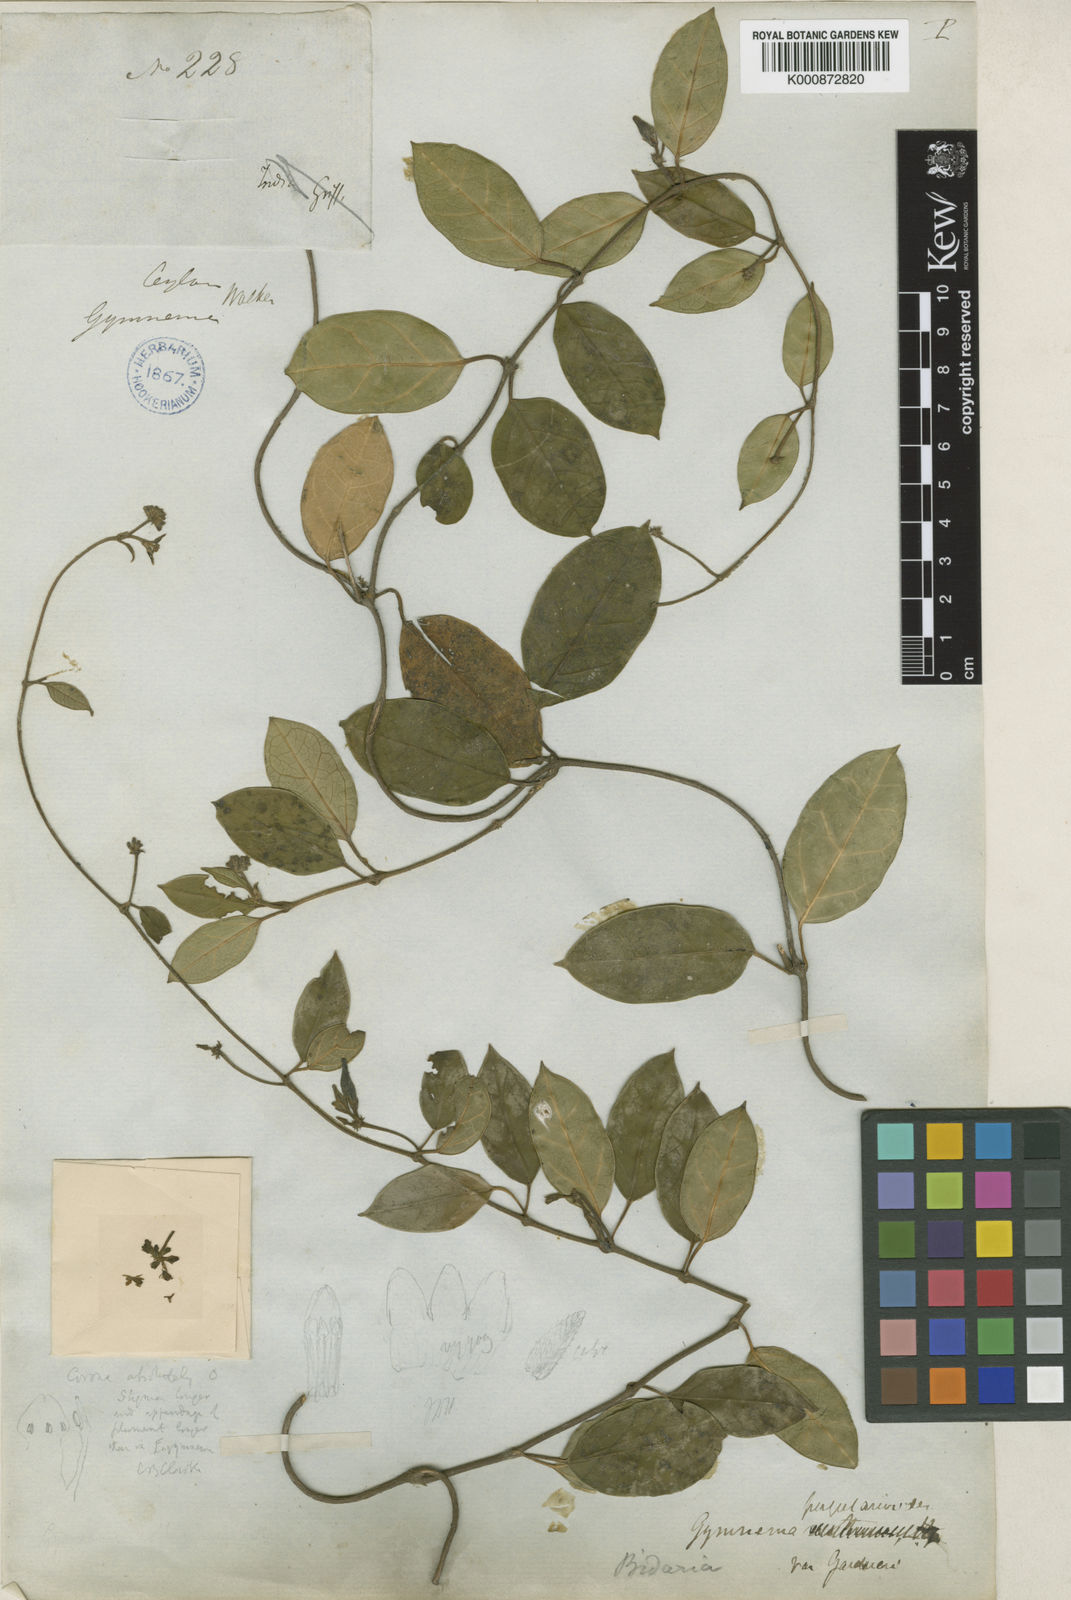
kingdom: Plantae
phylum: Tracheophyta
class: Magnoliopsida
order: Gentianales
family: Apocynaceae
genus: Gymnema
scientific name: Gymnema
